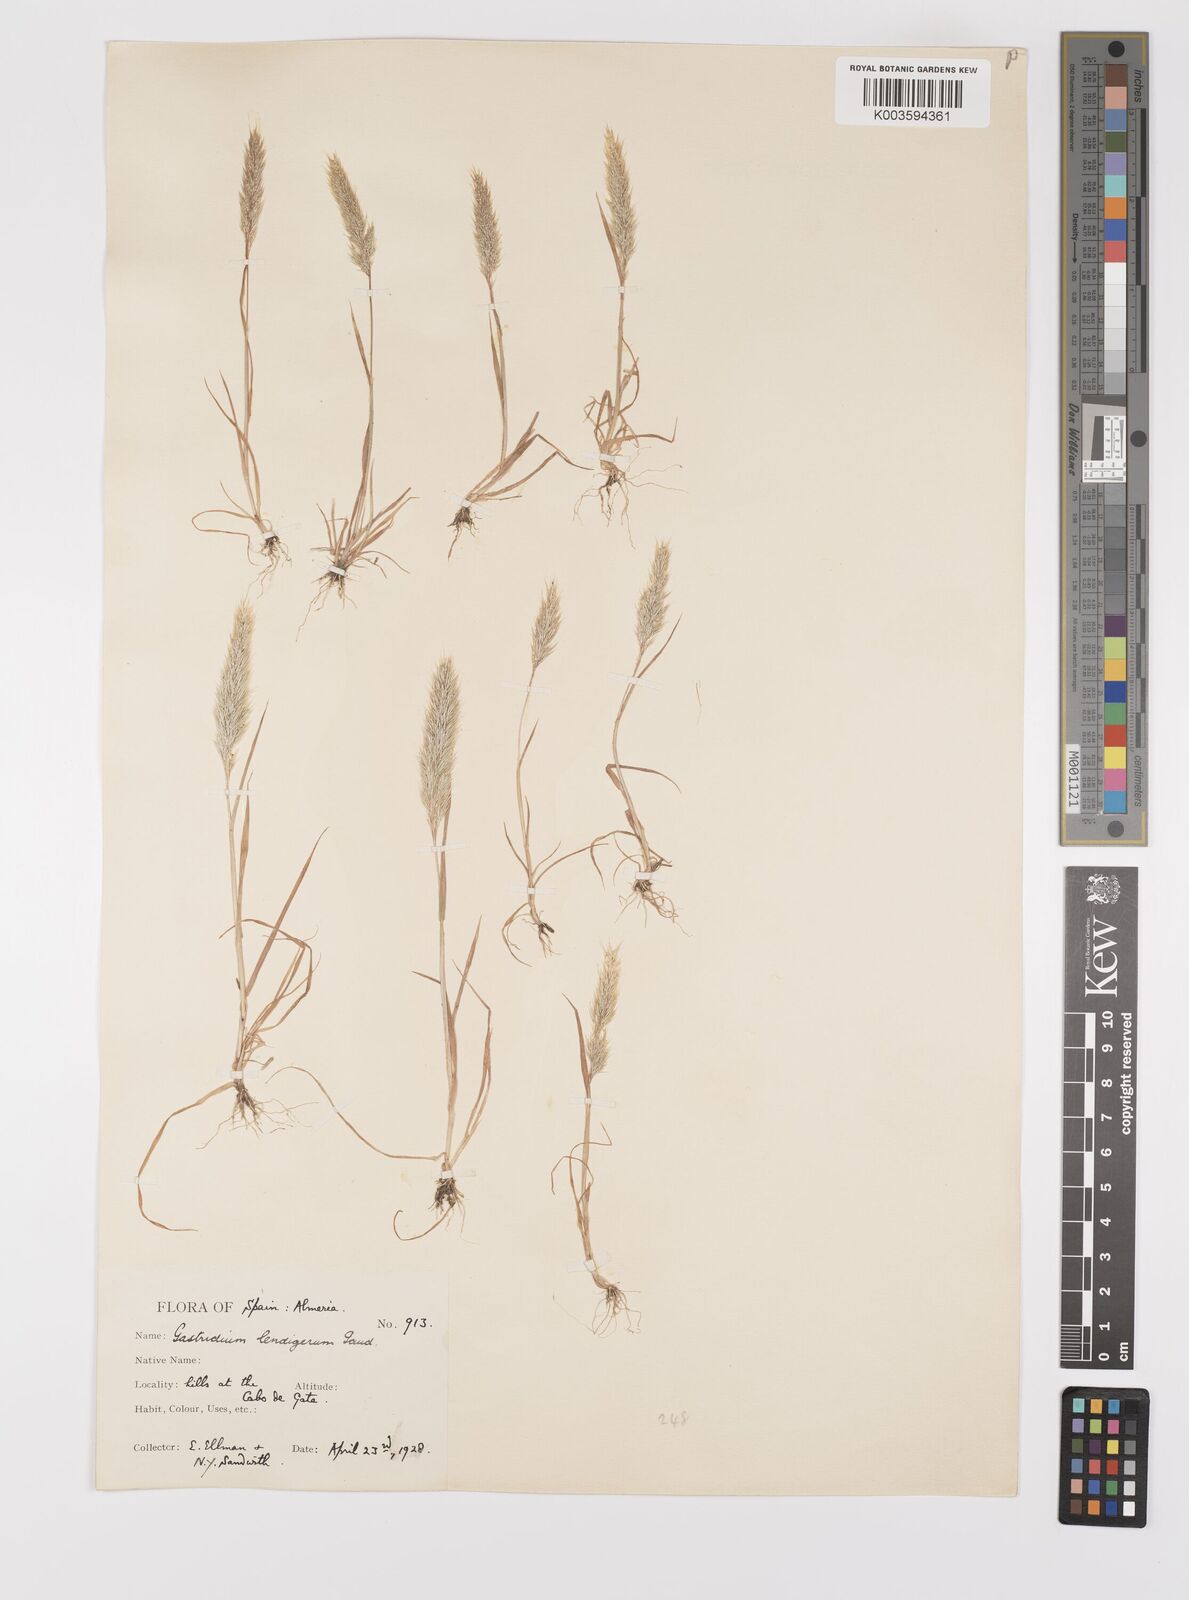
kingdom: Plantae
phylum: Tracheophyta
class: Liliopsida
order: Poales
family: Poaceae
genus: Gastridium
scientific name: Gastridium phleoides
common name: Nit grass
